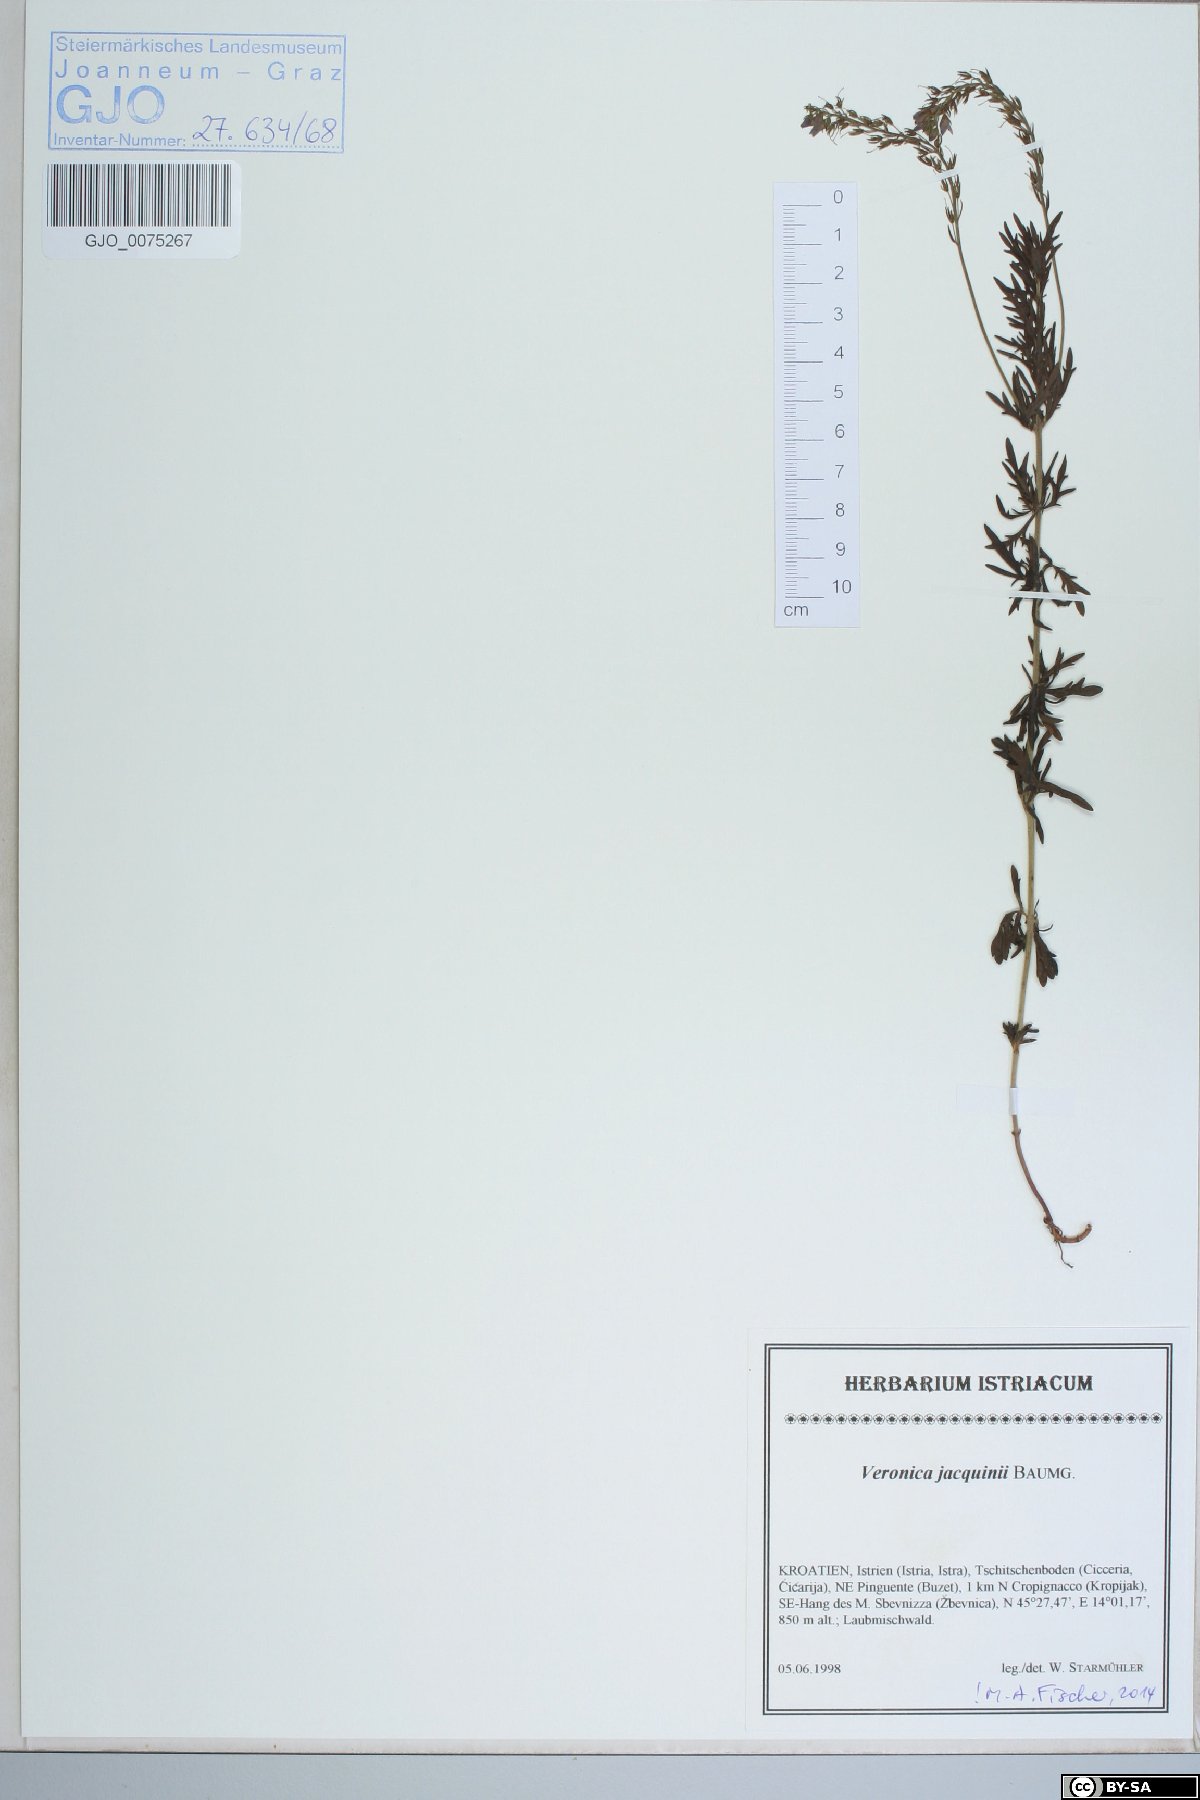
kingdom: Plantae
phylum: Tracheophyta
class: Magnoliopsida
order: Lamiales
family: Plantaginaceae
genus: Veronica
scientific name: Veronica austriaca
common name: Large speedwell
